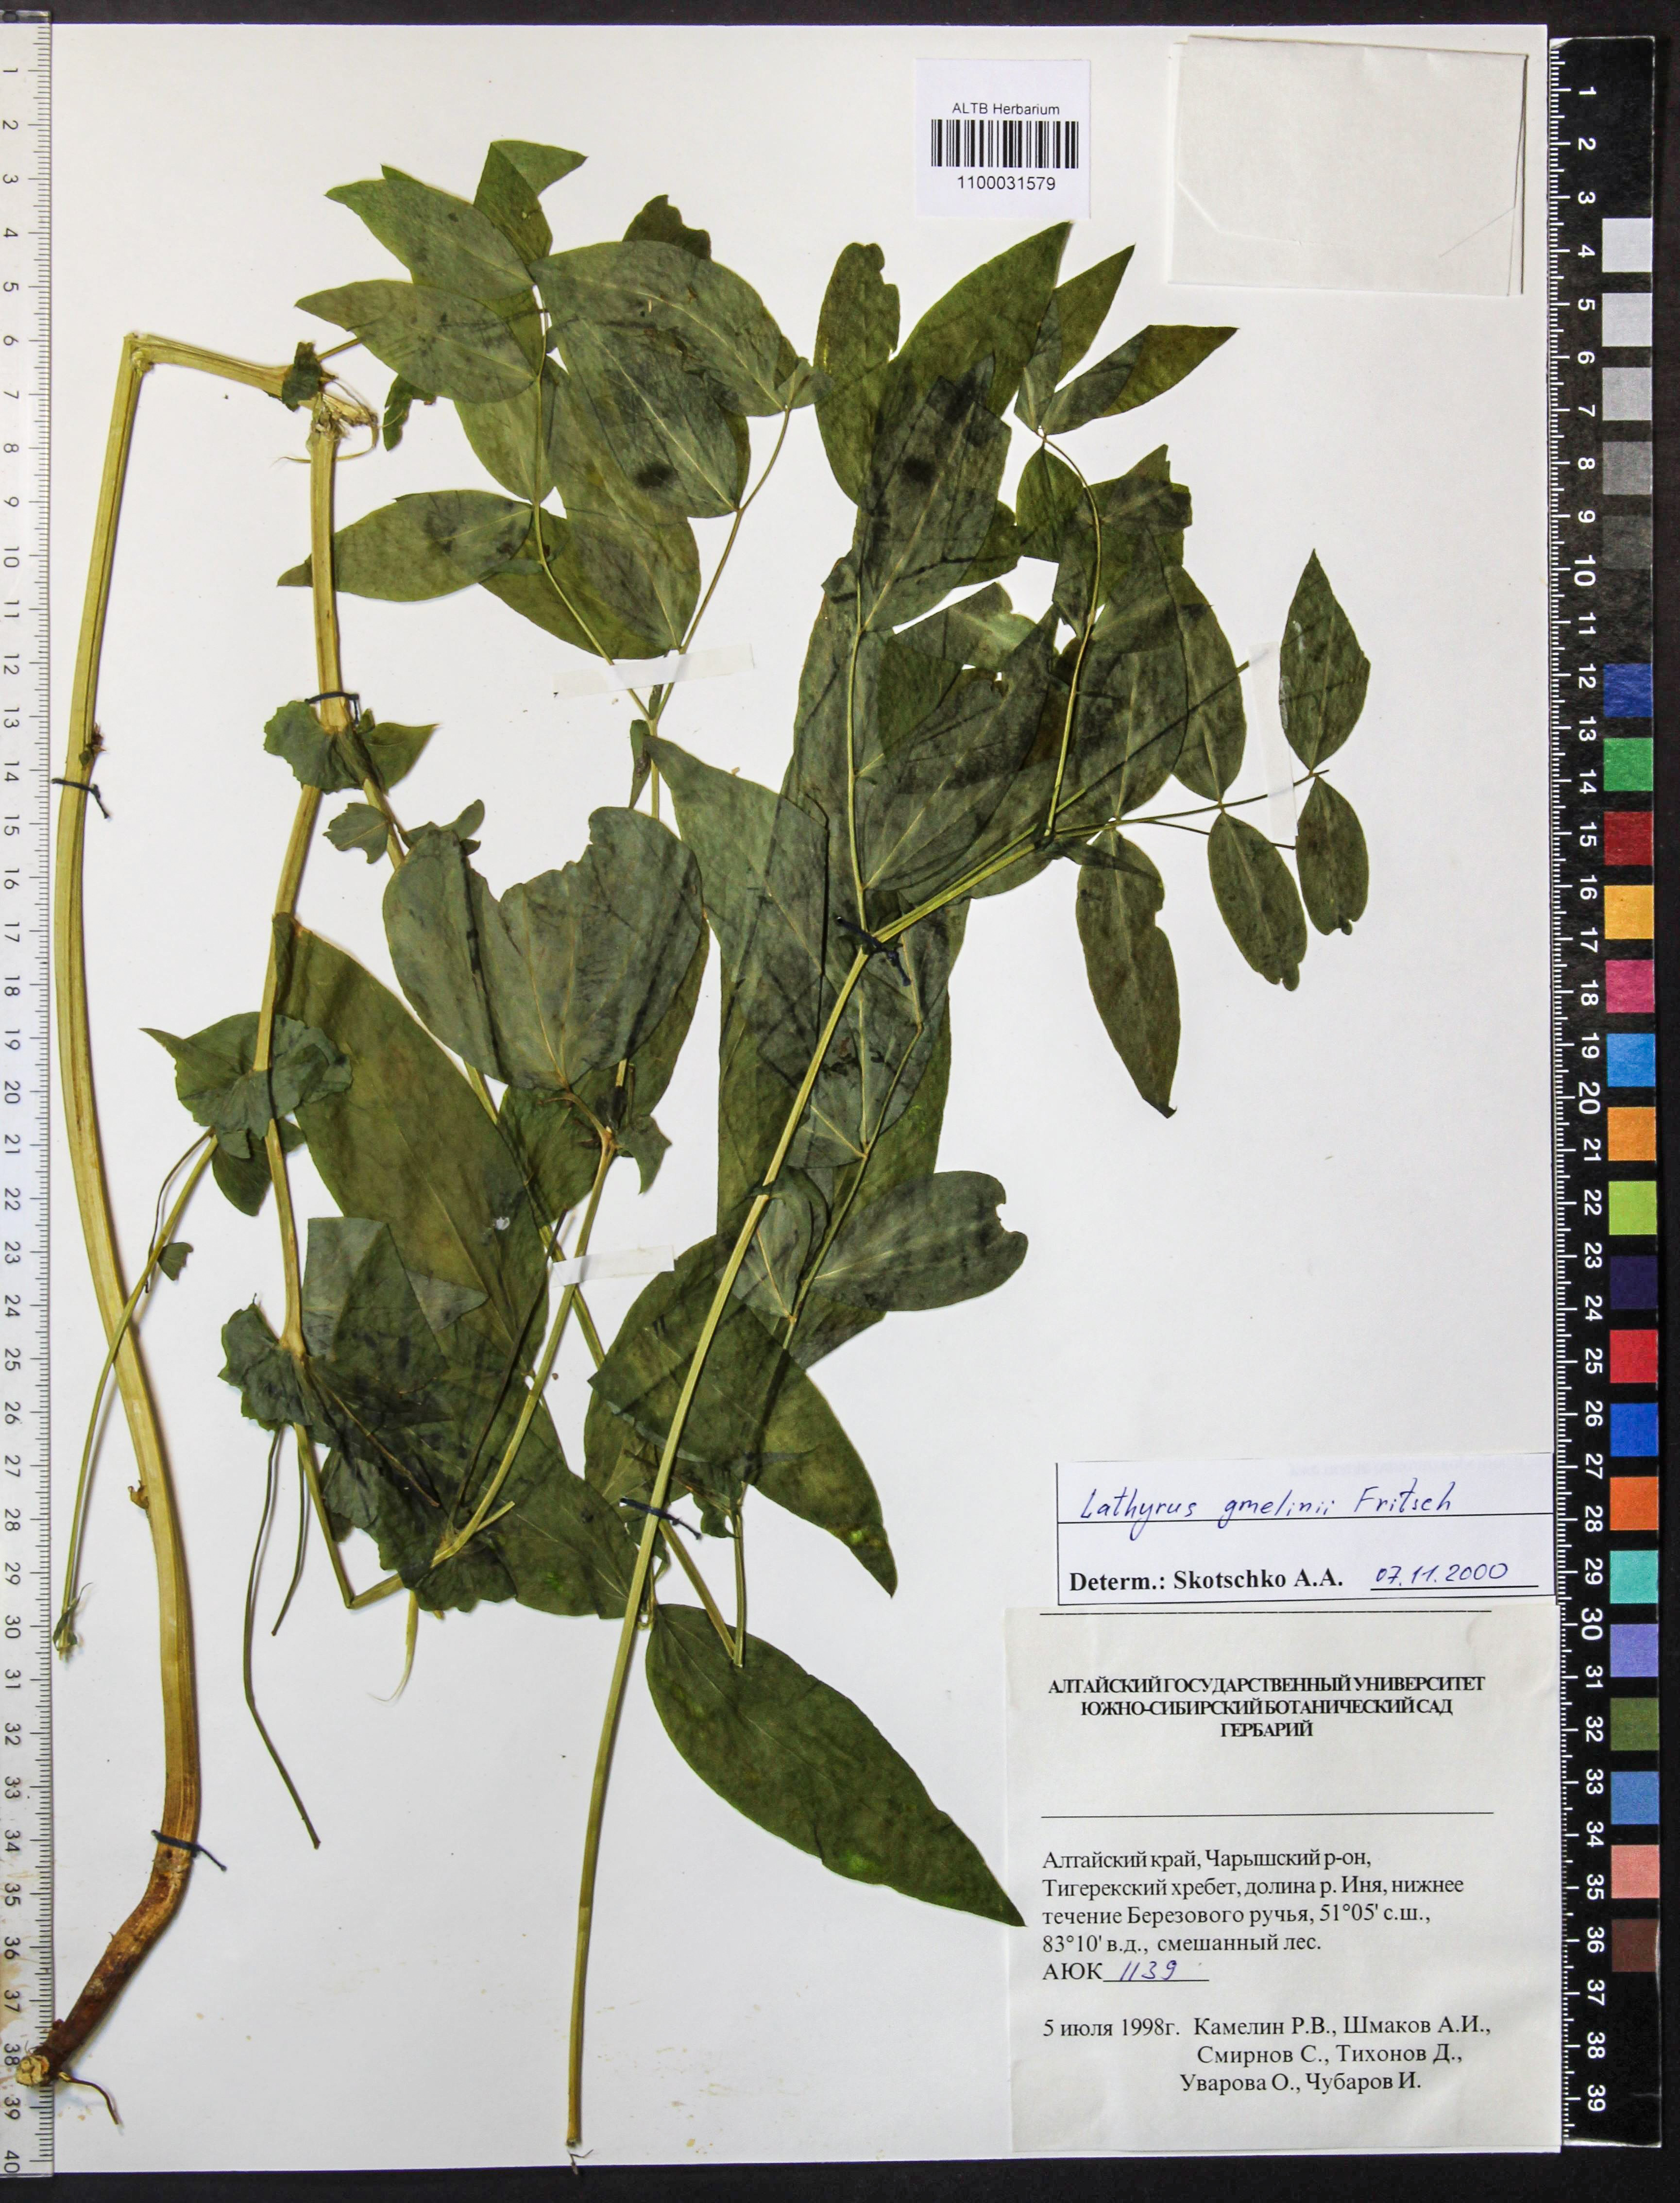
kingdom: Plantae
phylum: Tracheophyta
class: Magnoliopsida
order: Fabales
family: Fabaceae
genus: Lathyrus
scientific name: Lathyrus gmelinii
